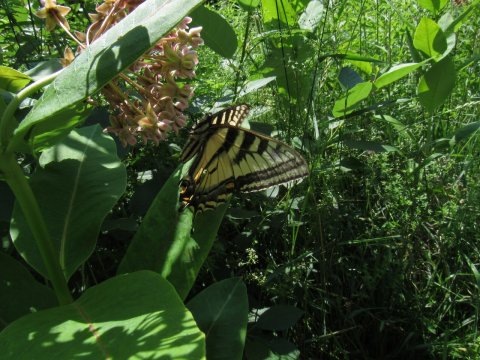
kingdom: Animalia
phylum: Arthropoda
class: Insecta
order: Lepidoptera
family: Papilionidae
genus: Pterourus
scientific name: Pterourus canadensis
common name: Canadian Tiger Swallowtail
